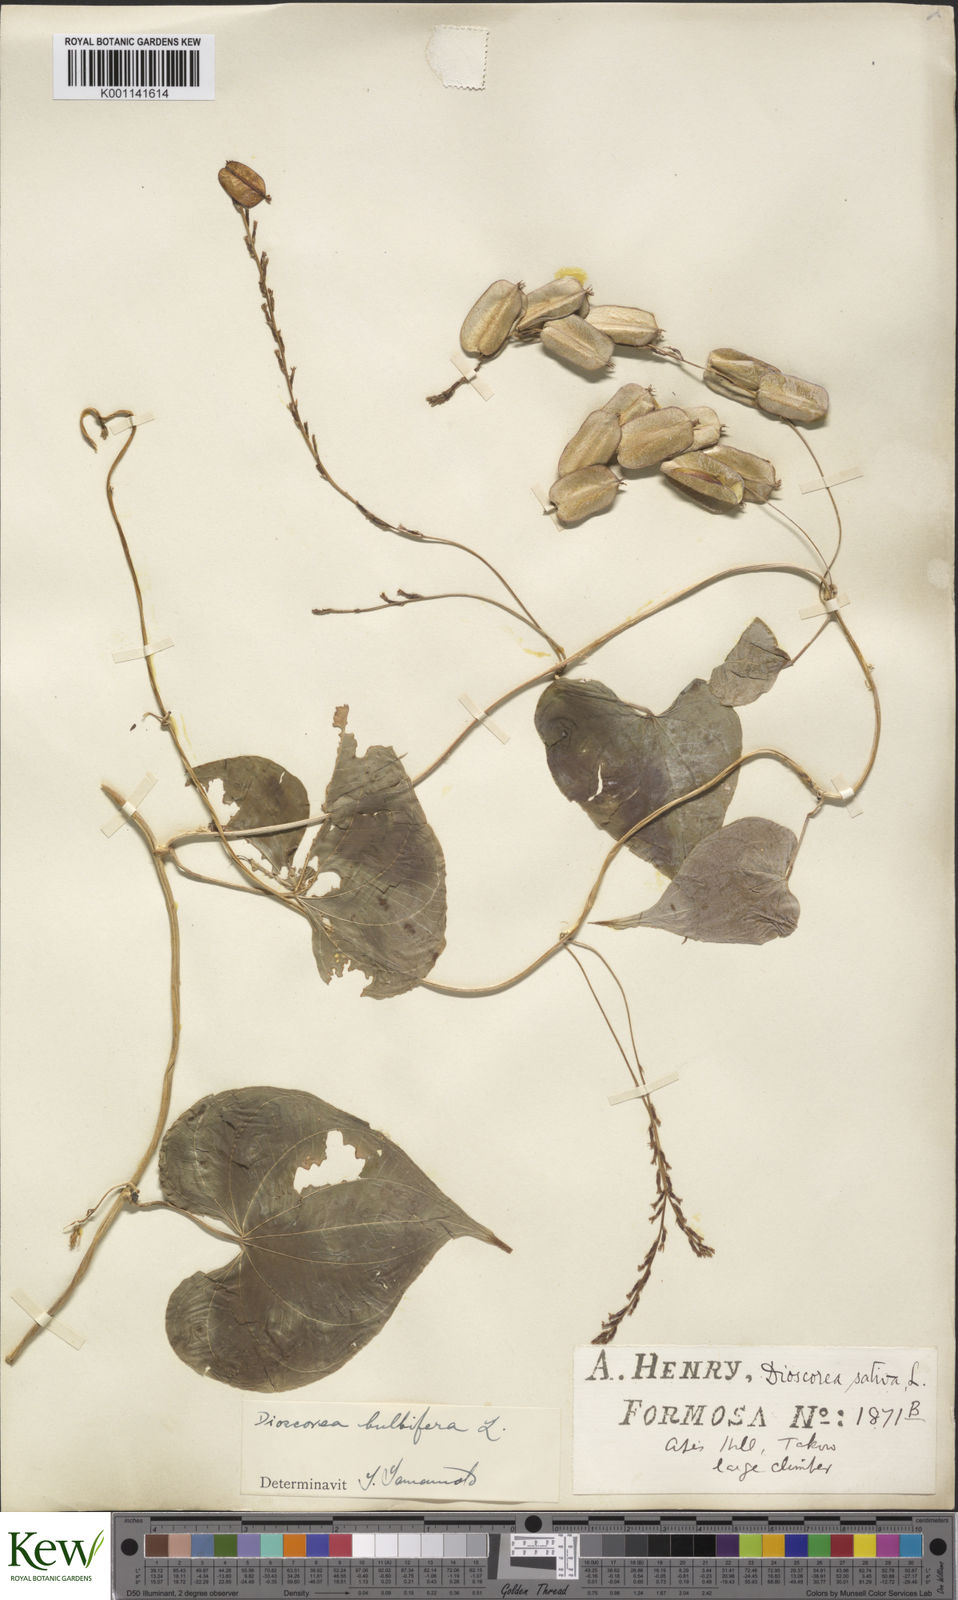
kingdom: Plantae
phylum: Tracheophyta
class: Liliopsida
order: Dioscoreales
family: Dioscoreaceae
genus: Dioscorea
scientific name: Dioscorea bulbifera
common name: Air yam
